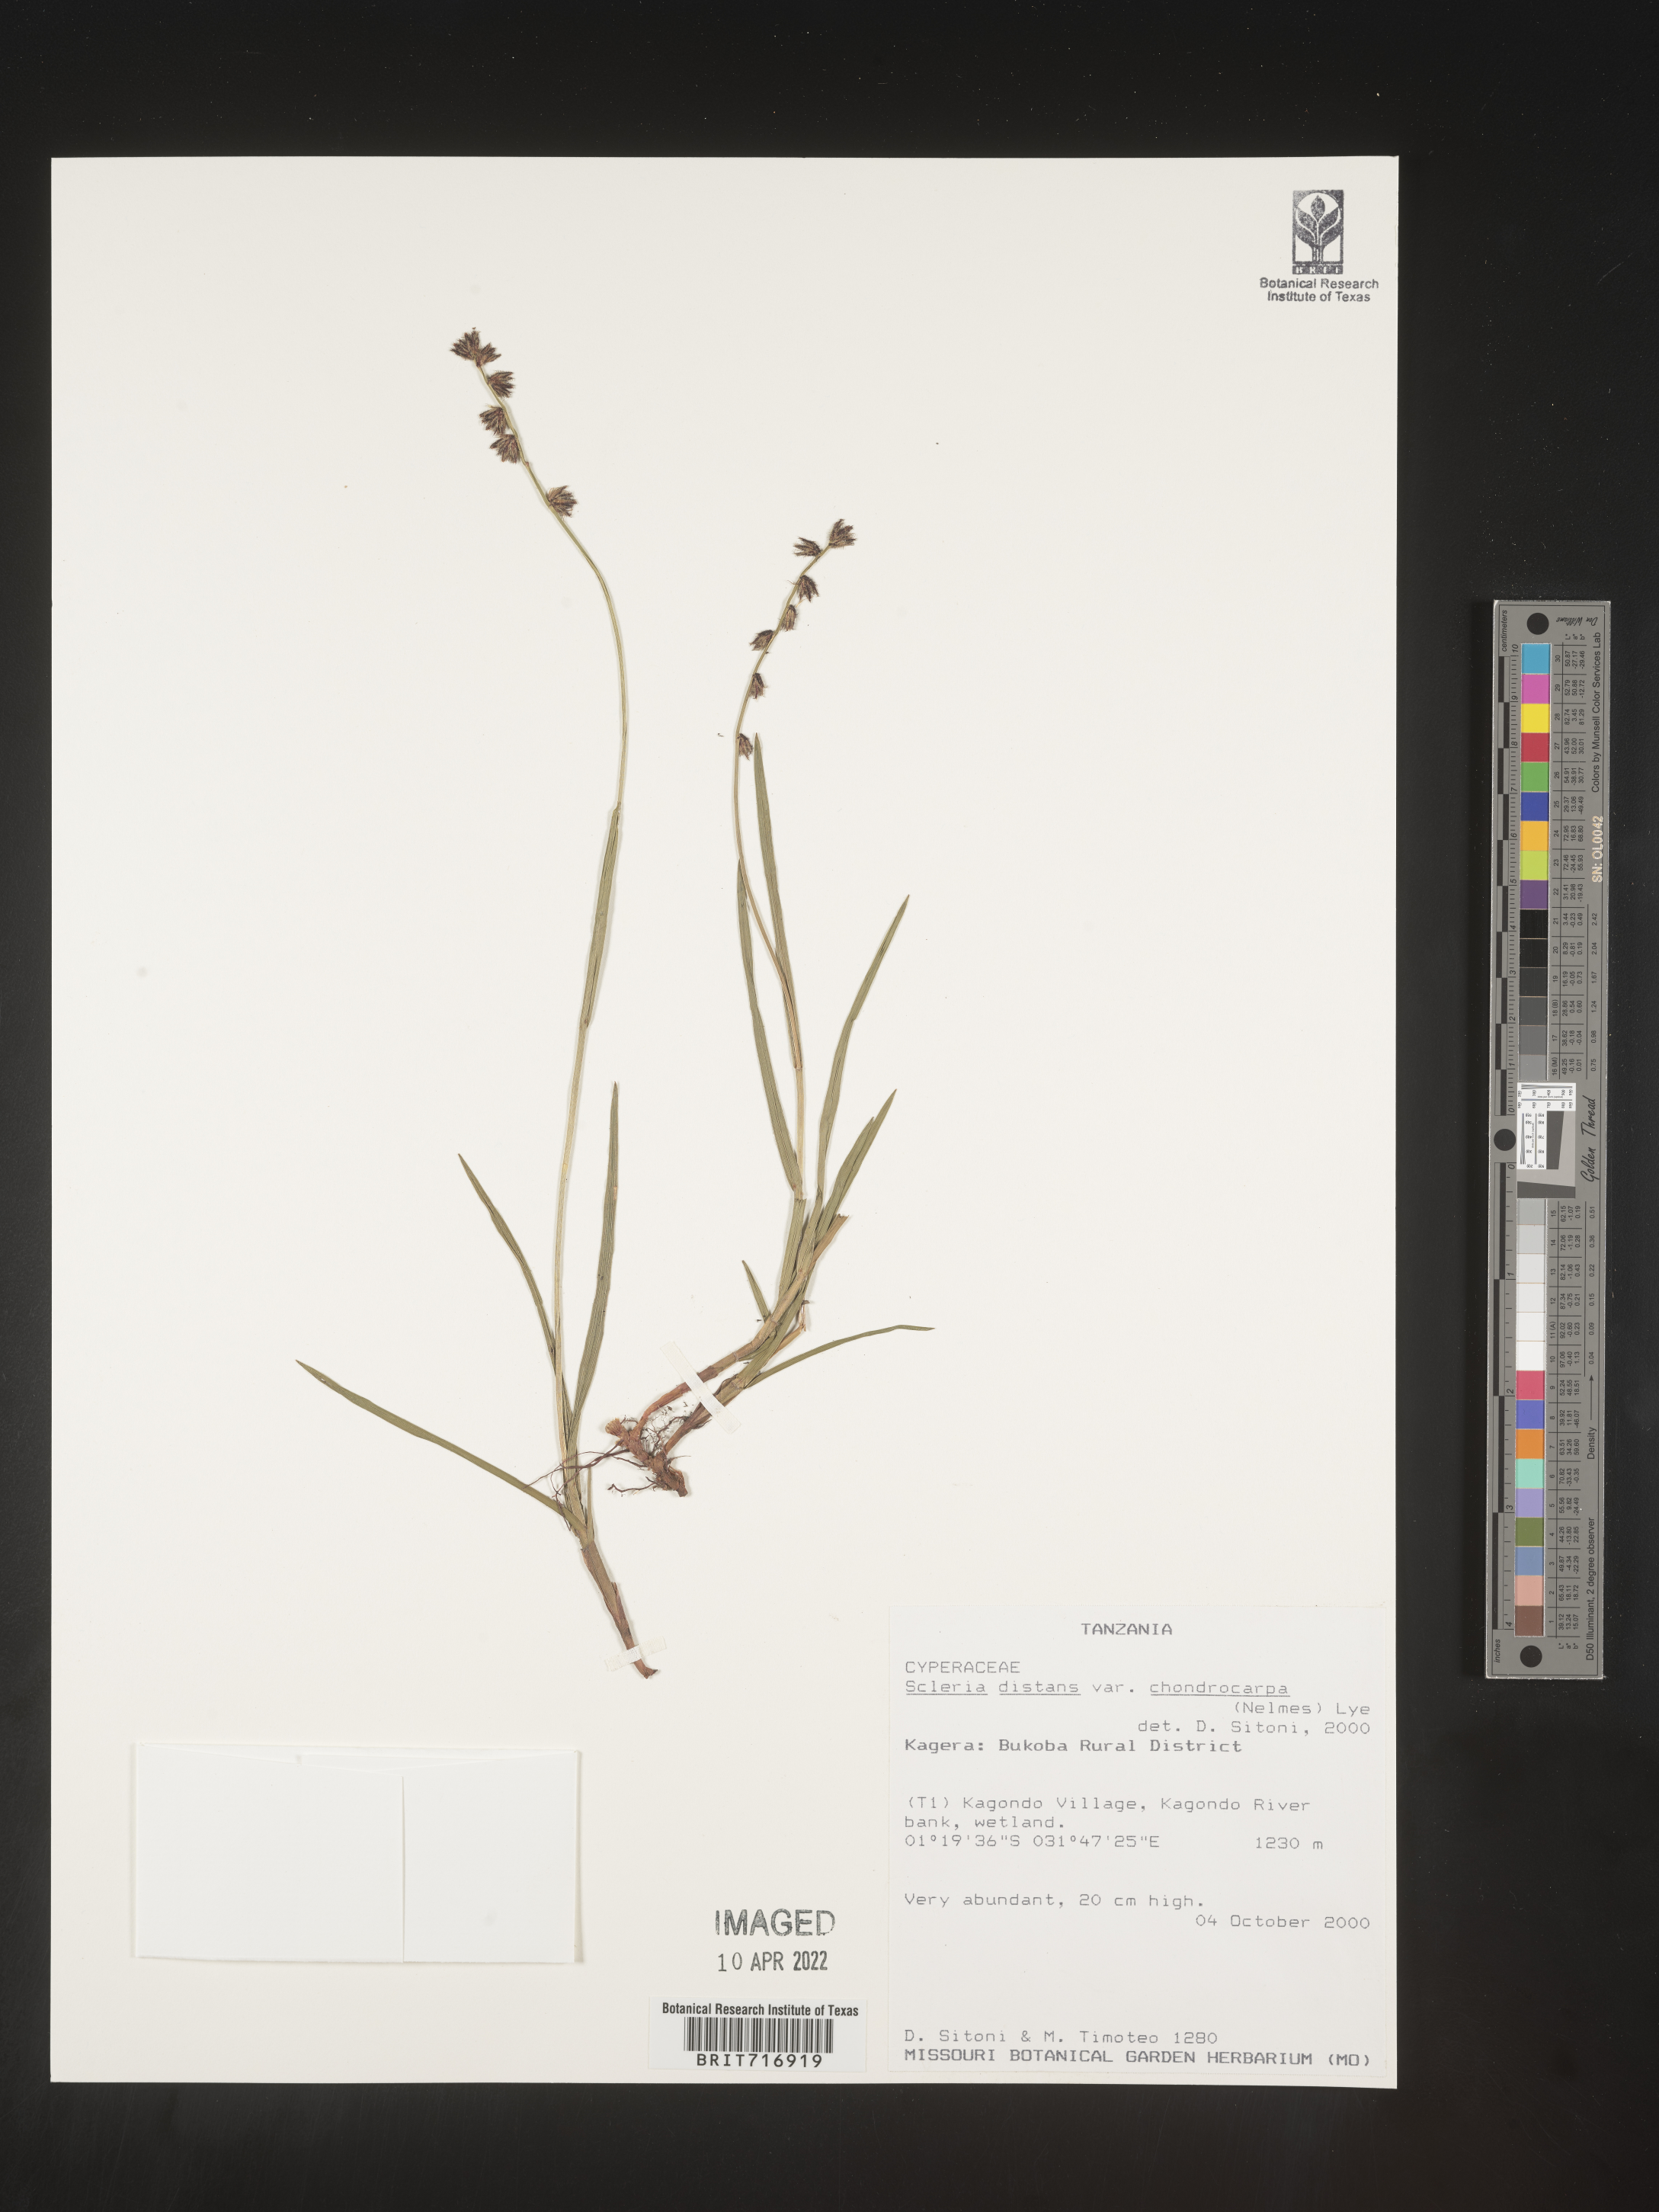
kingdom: Plantae
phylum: Tracheophyta
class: Liliopsida
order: Poales
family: Cyperaceae
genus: Scleria
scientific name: Scleria
